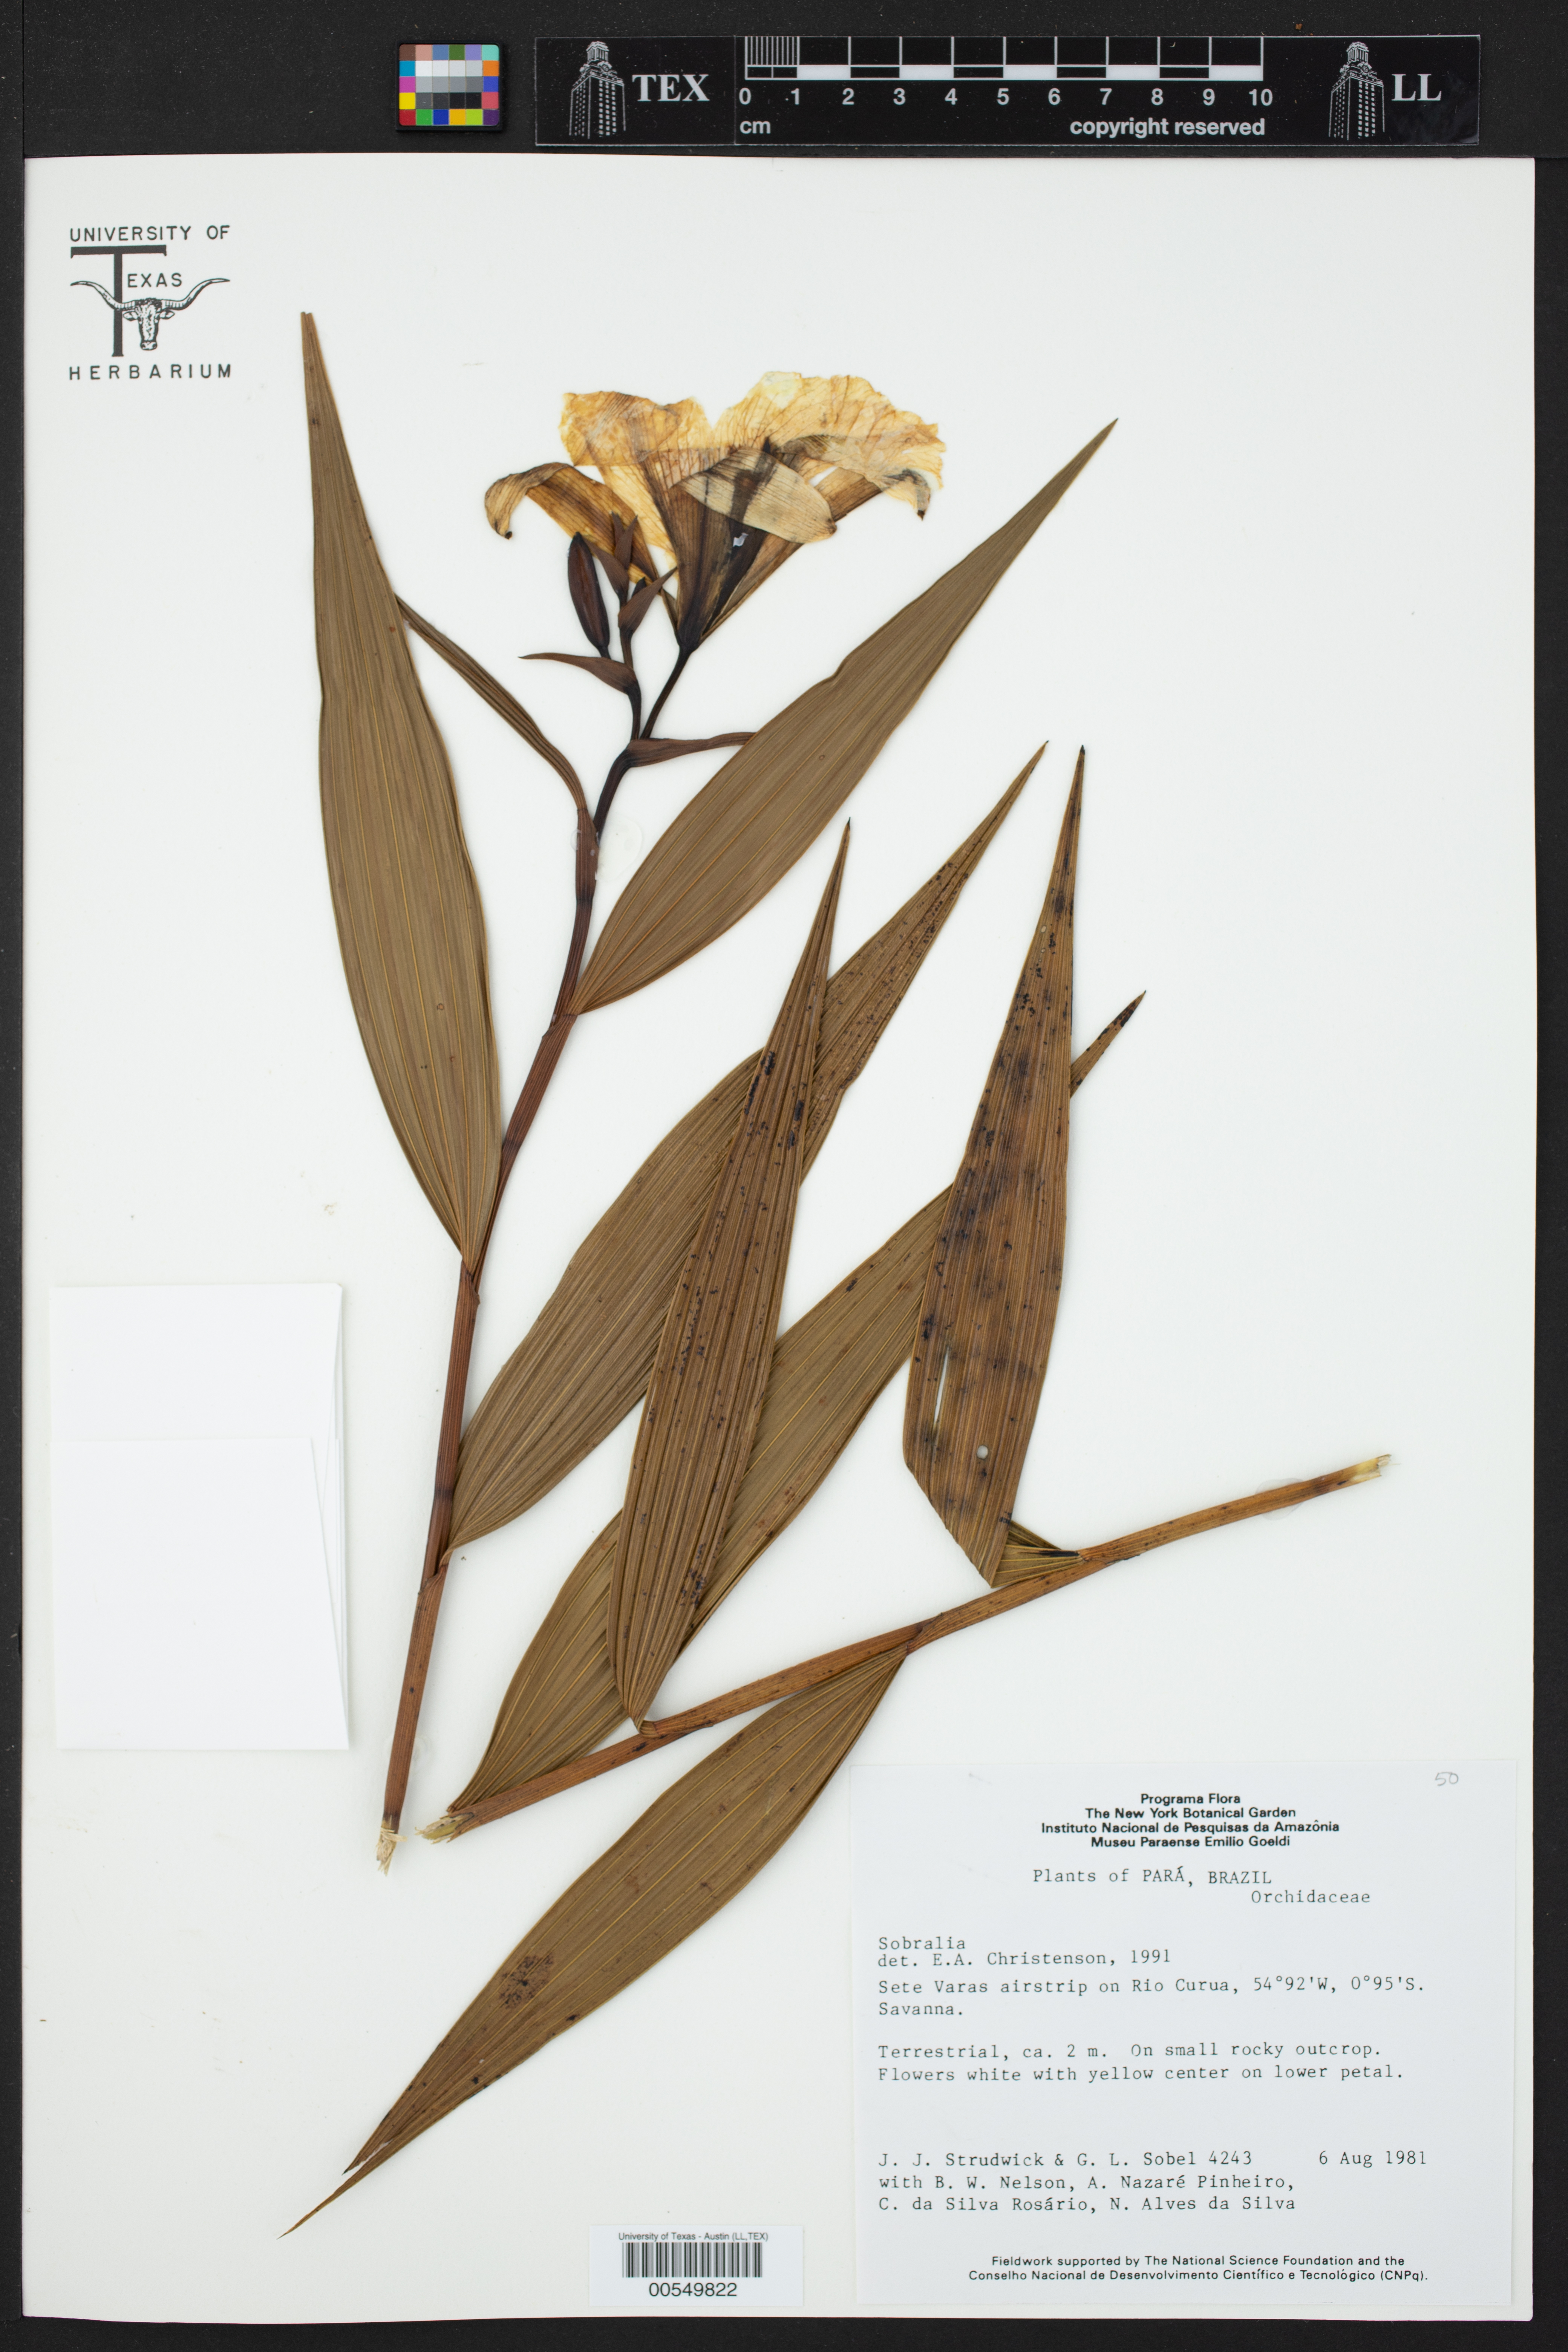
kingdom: Plantae
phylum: Tracheophyta
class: Liliopsida
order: Asparagales
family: Orchidaceae
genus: Sobralia
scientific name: Sobralia
